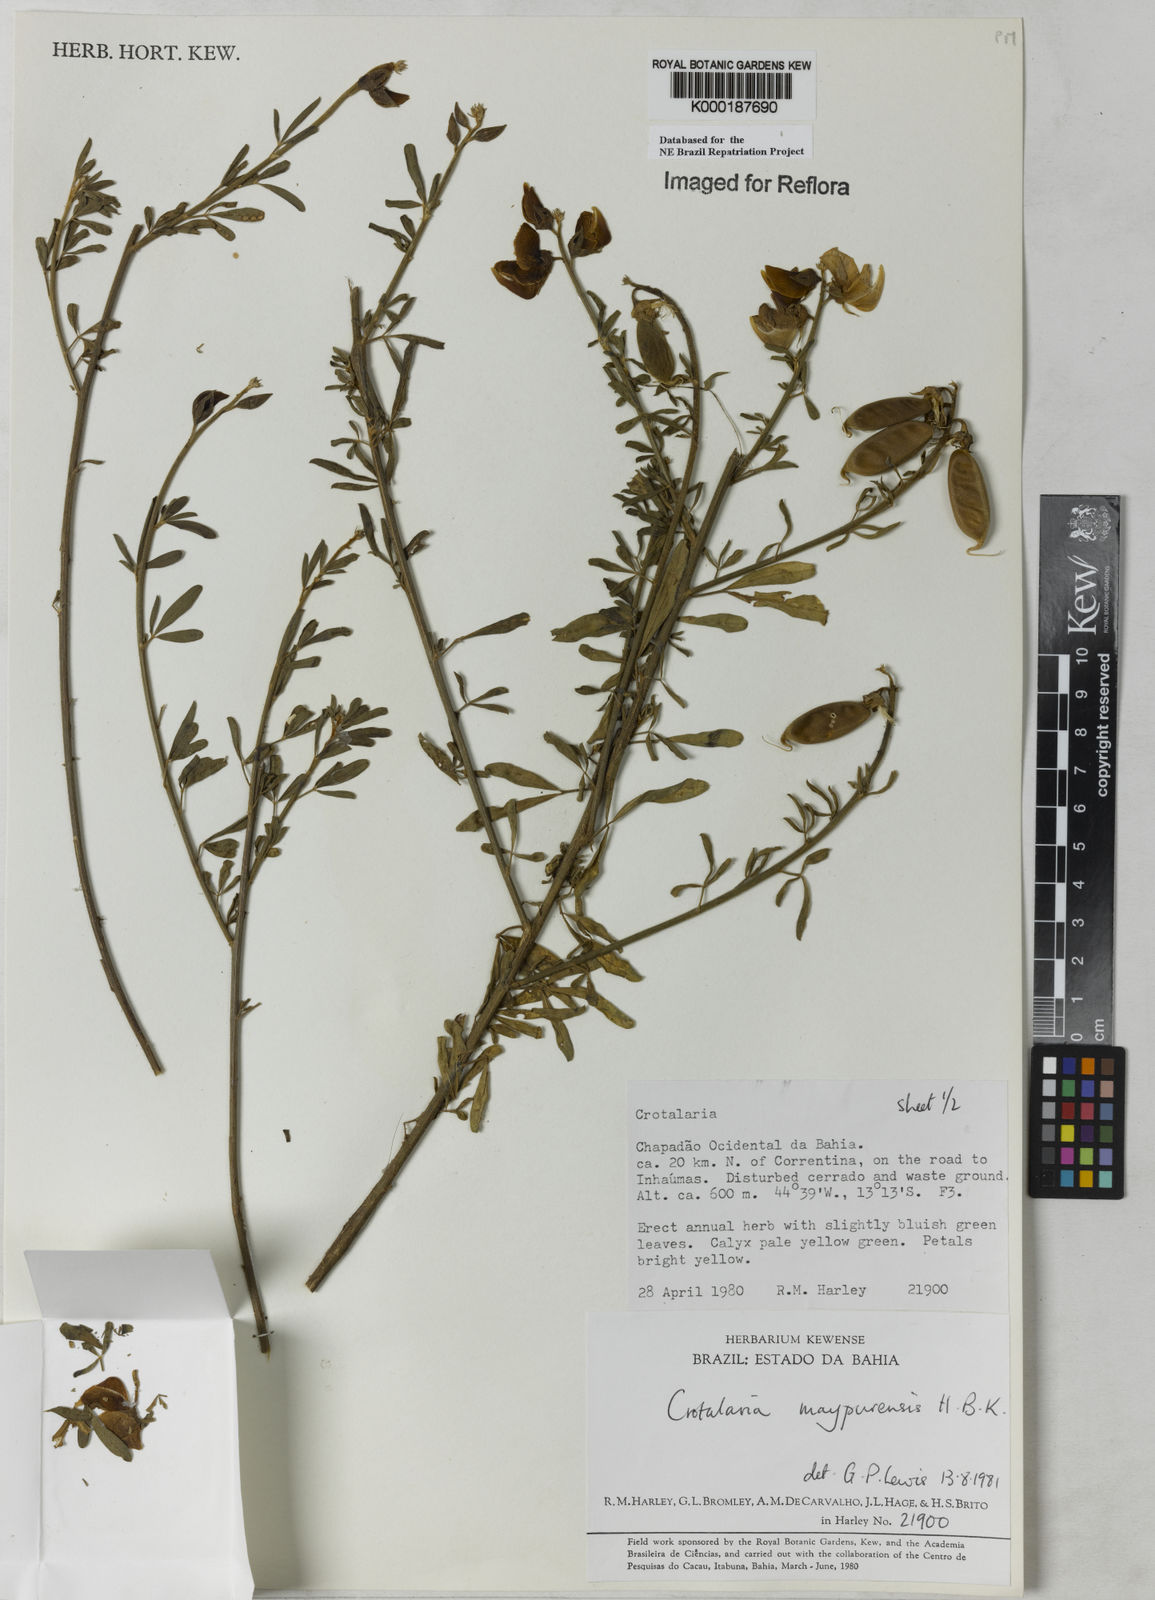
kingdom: Plantae
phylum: Tracheophyta
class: Magnoliopsida
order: Fabales
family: Fabaceae
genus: Crotalaria
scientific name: Crotalaria maypurensis
